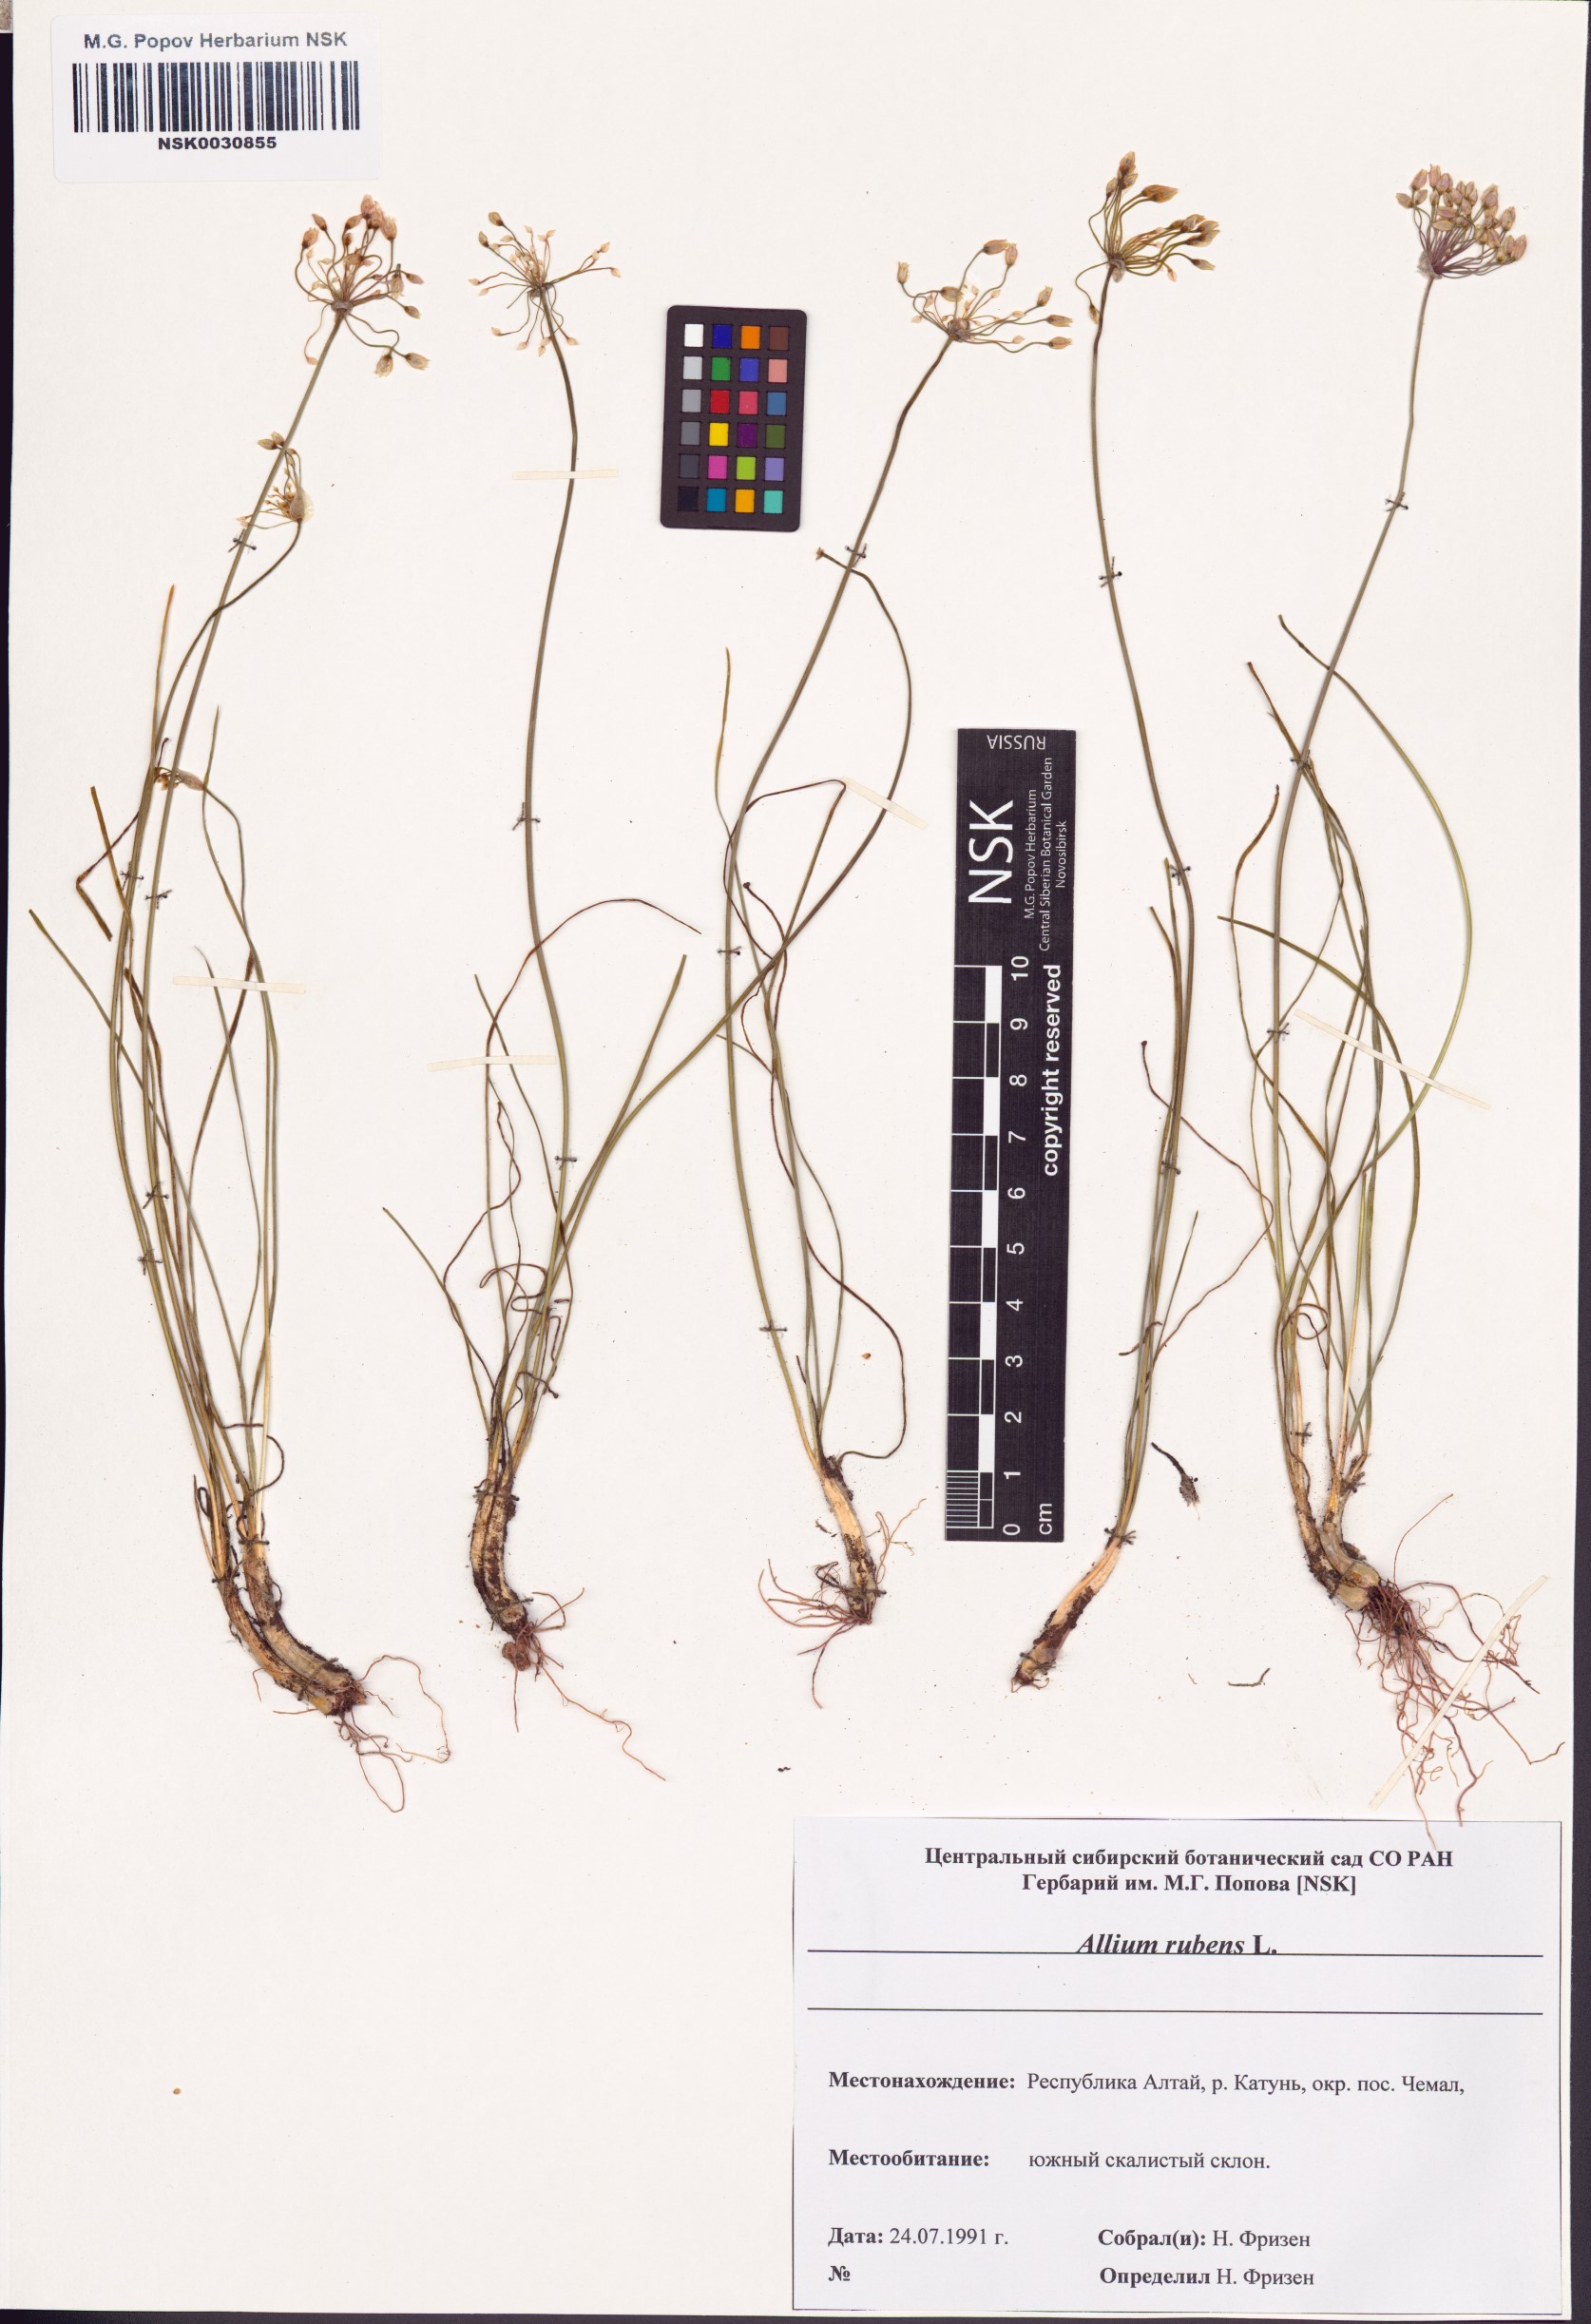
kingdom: Plantae
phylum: Tracheophyta
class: Liliopsida
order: Asparagales
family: Amaryllidaceae
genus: Allium
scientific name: Allium rubens
